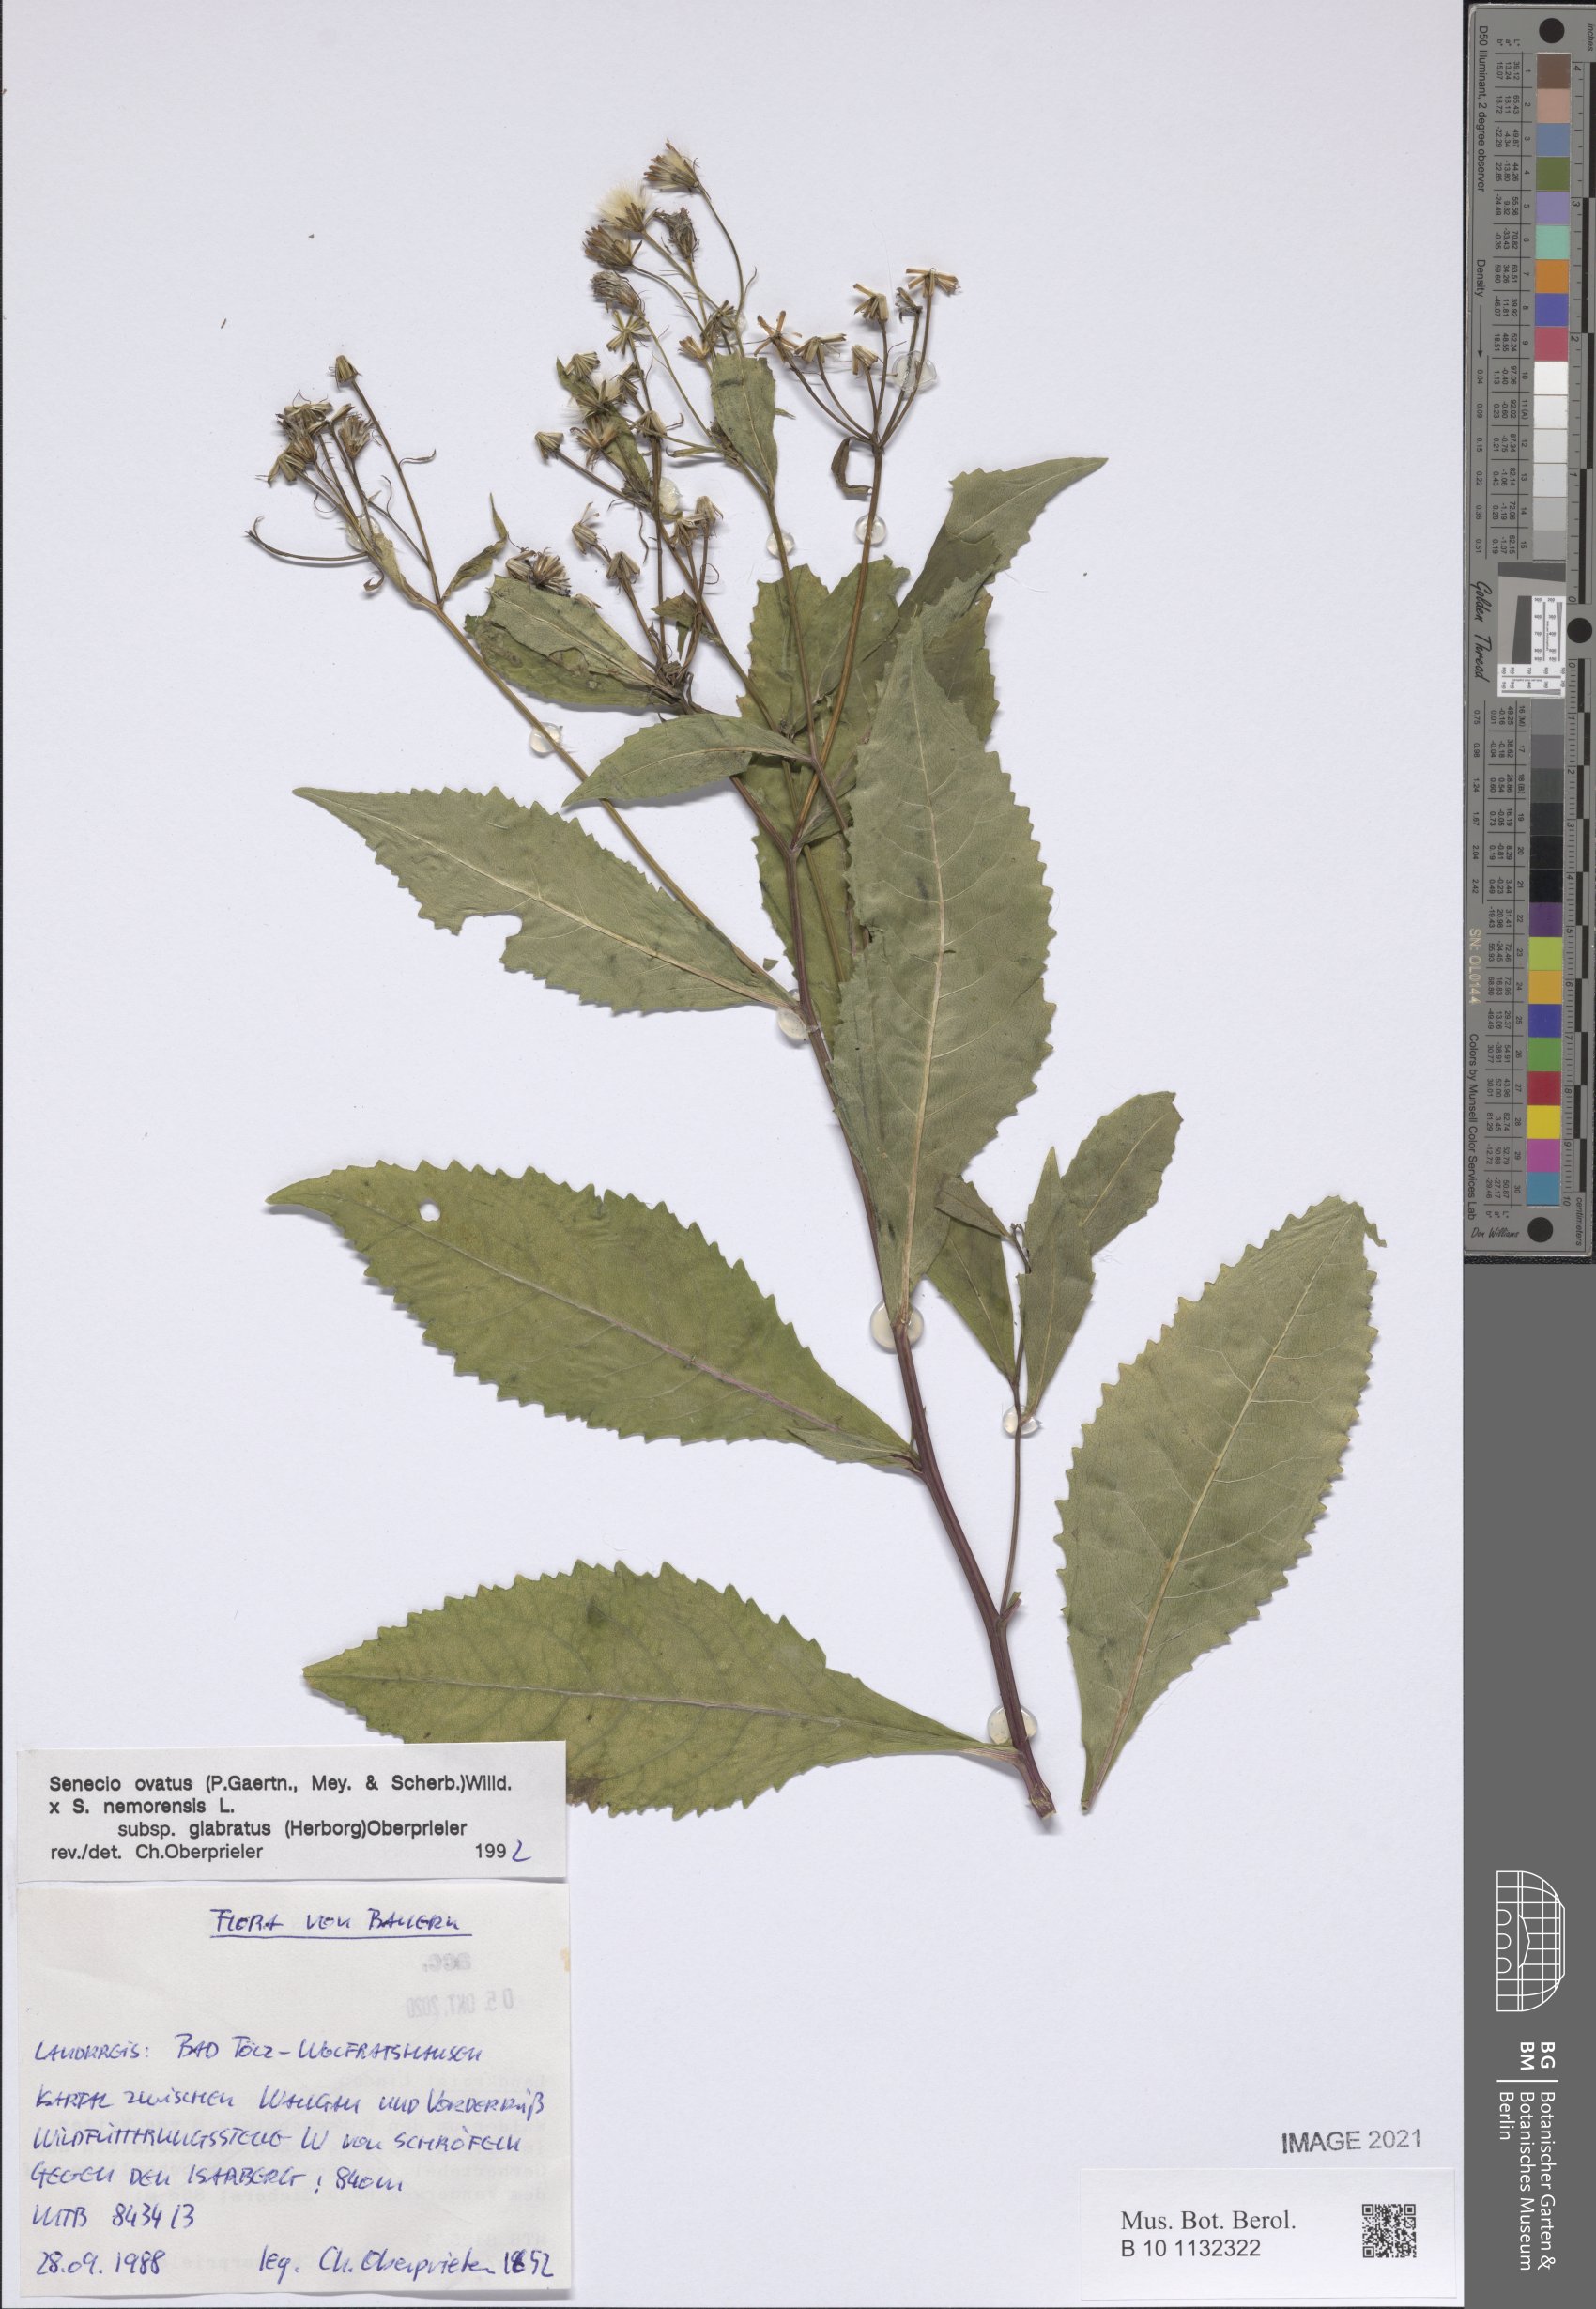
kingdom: Plantae
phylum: Tracheophyta
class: Magnoliopsida
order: Asterales
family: Asteraceae
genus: Senecio
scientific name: Senecio ovatus
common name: Wood ragwort
